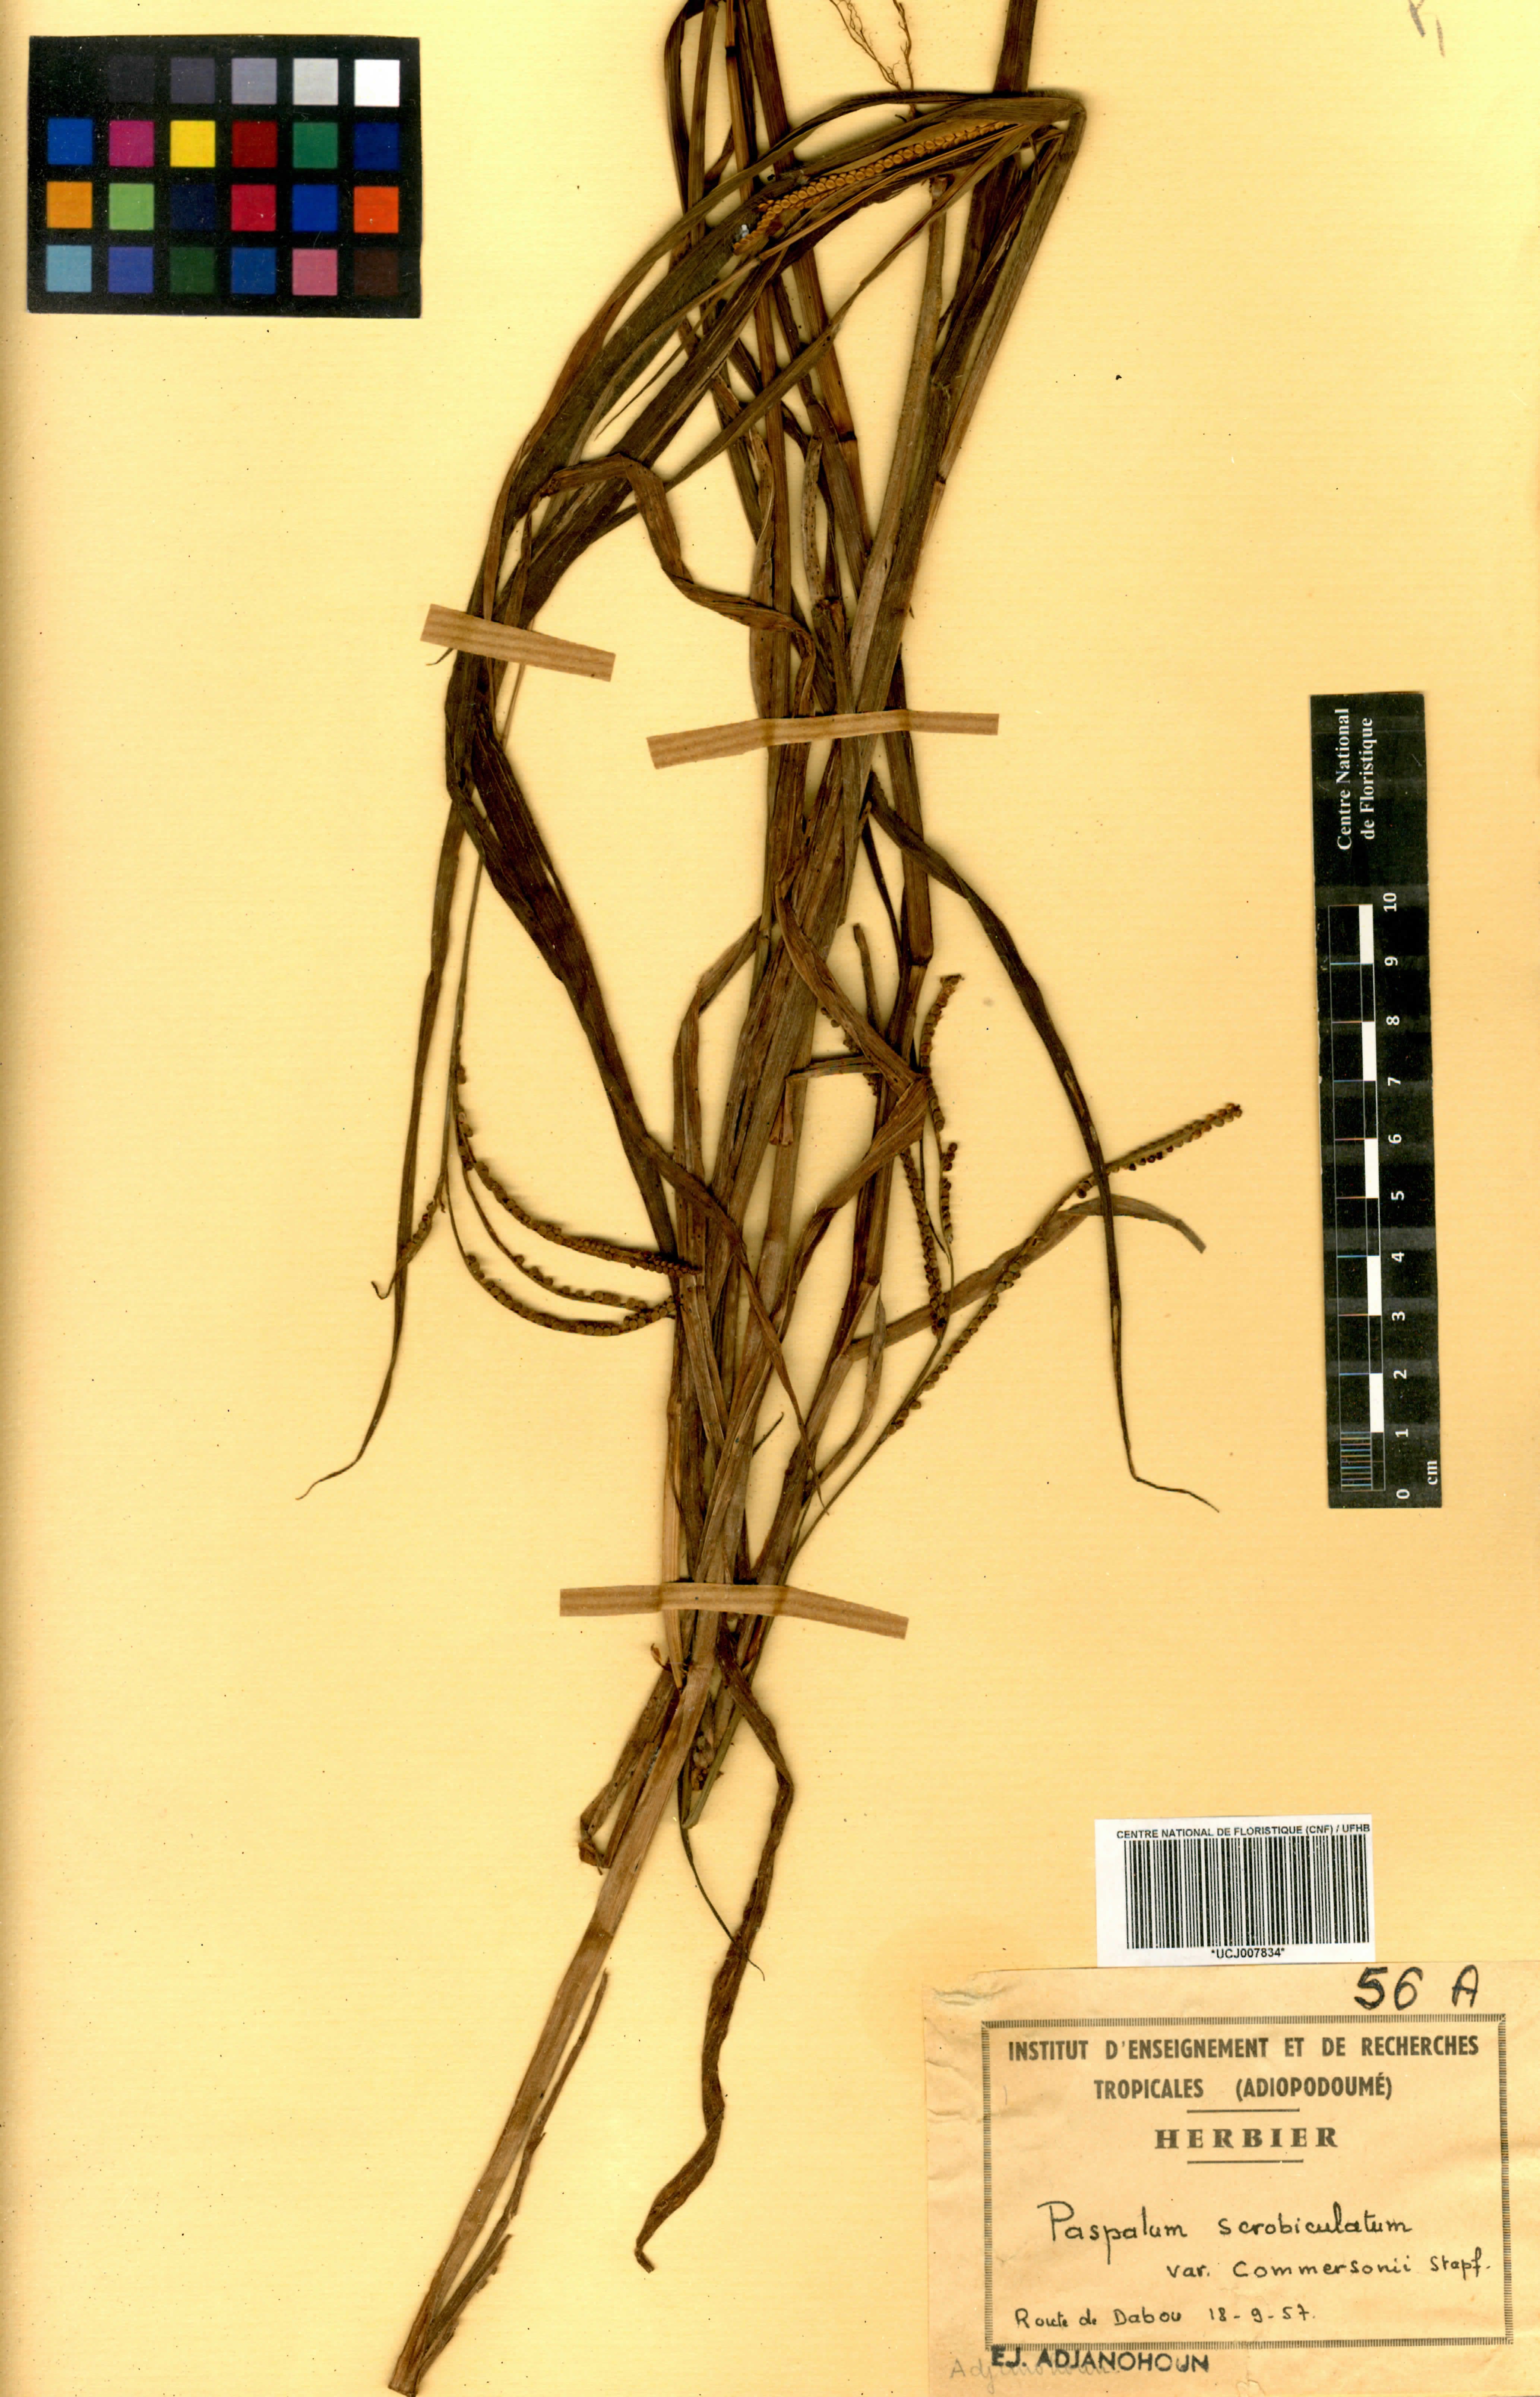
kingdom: Plantae
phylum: Tracheophyta
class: Liliopsida
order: Poales
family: Poaceae
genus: Paspalum
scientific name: Paspalum scrobiculatum
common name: Kodo millet
